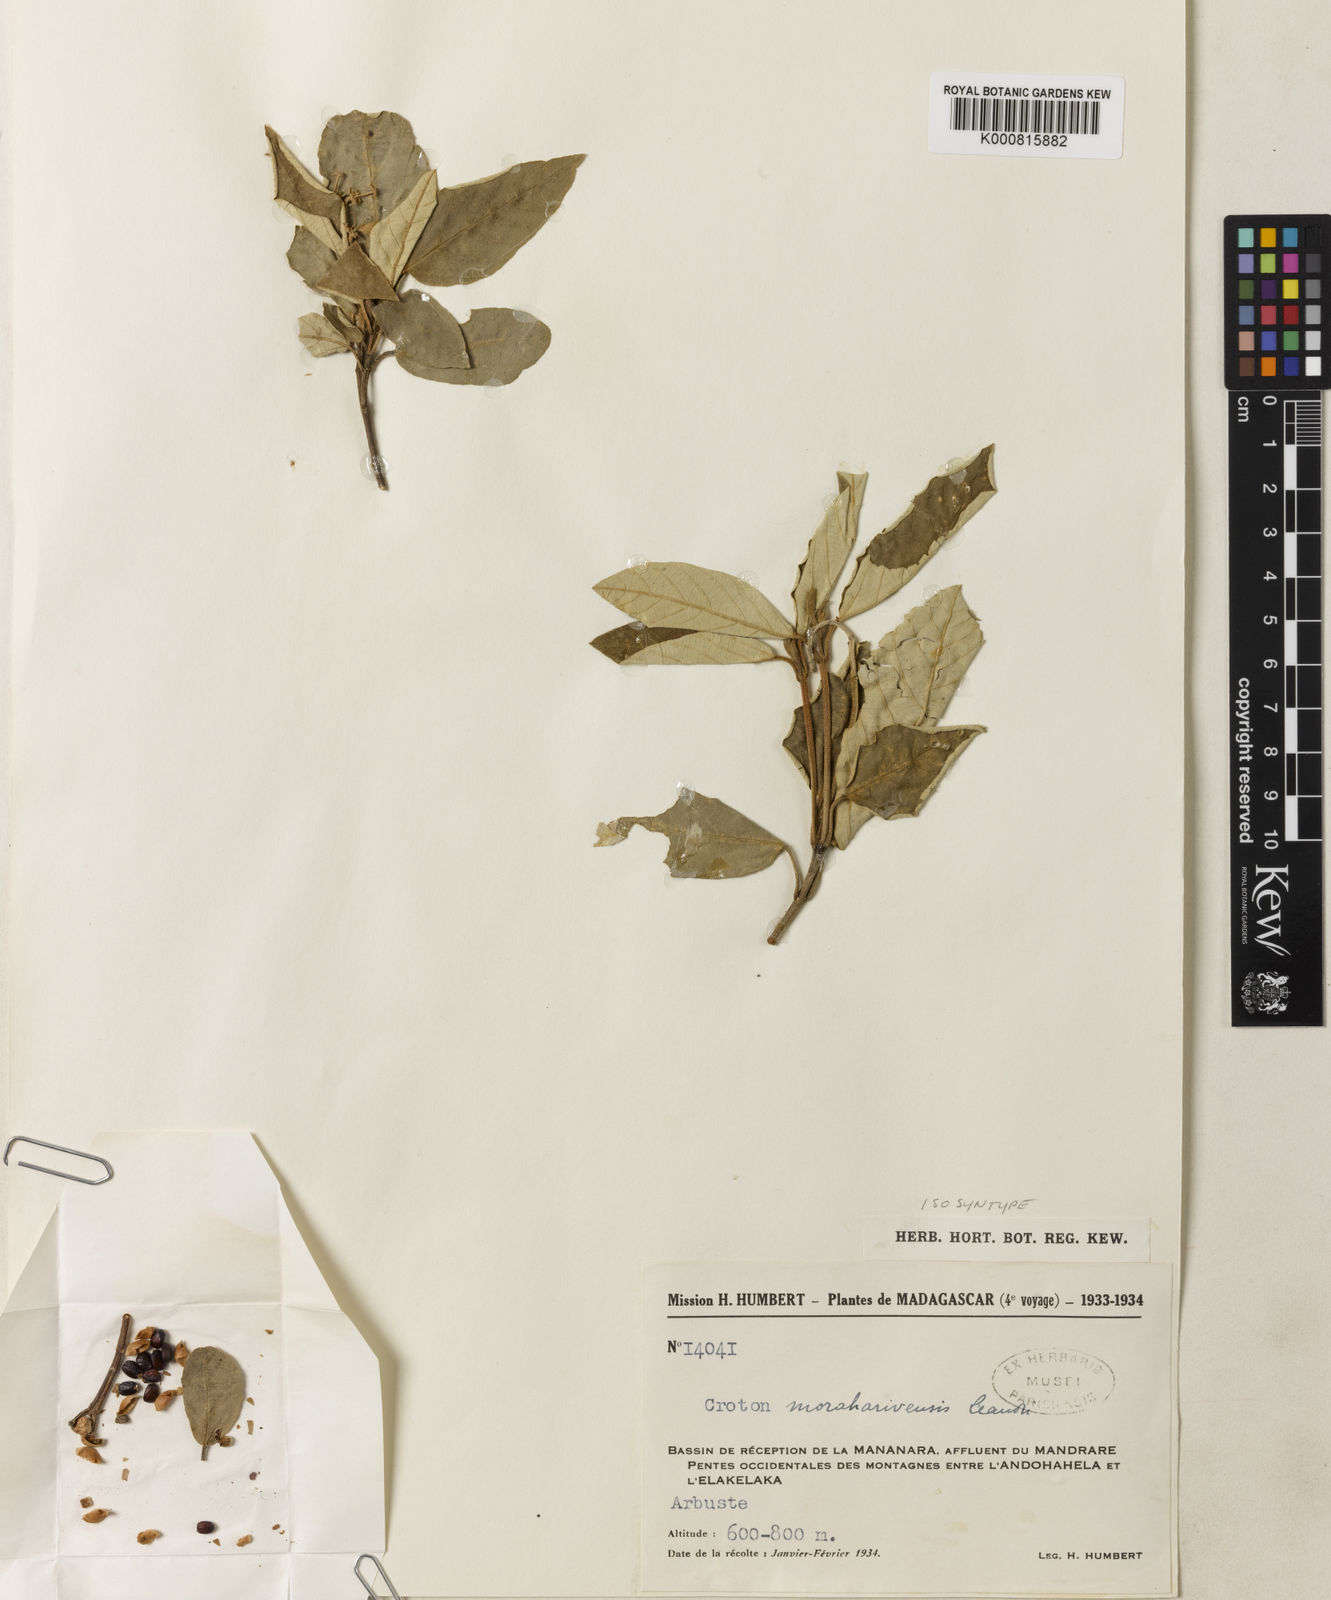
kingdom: Plantae
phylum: Tracheophyta
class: Magnoliopsida
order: Malpighiales
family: Euphorbiaceae
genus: Croton
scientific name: Croton farinosus
